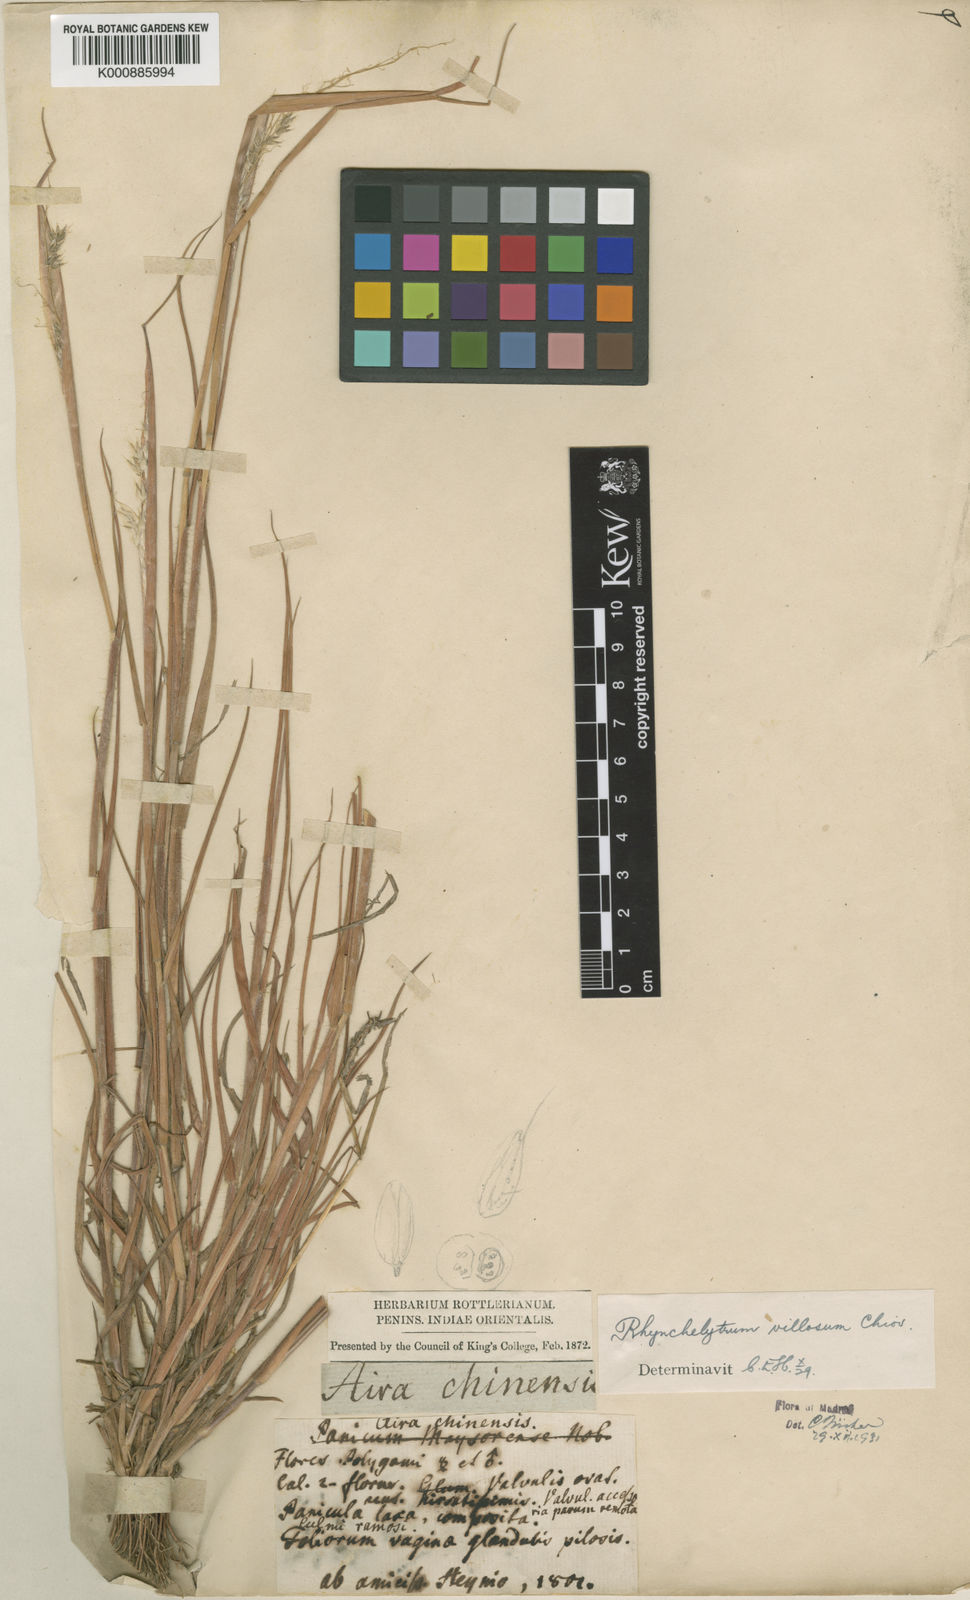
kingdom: Plantae
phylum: Tracheophyta
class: Liliopsida
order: Poales
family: Poaceae
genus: Melinis
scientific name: Melinis repens
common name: Rose natal grass
